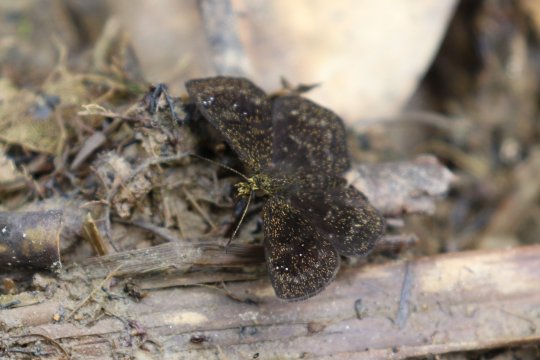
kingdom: Animalia
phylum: Arthropoda
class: Insecta
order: Lepidoptera
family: Hesperiidae
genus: Staphylus
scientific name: Staphylus vulgata
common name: Golden-snouted Sootywing
